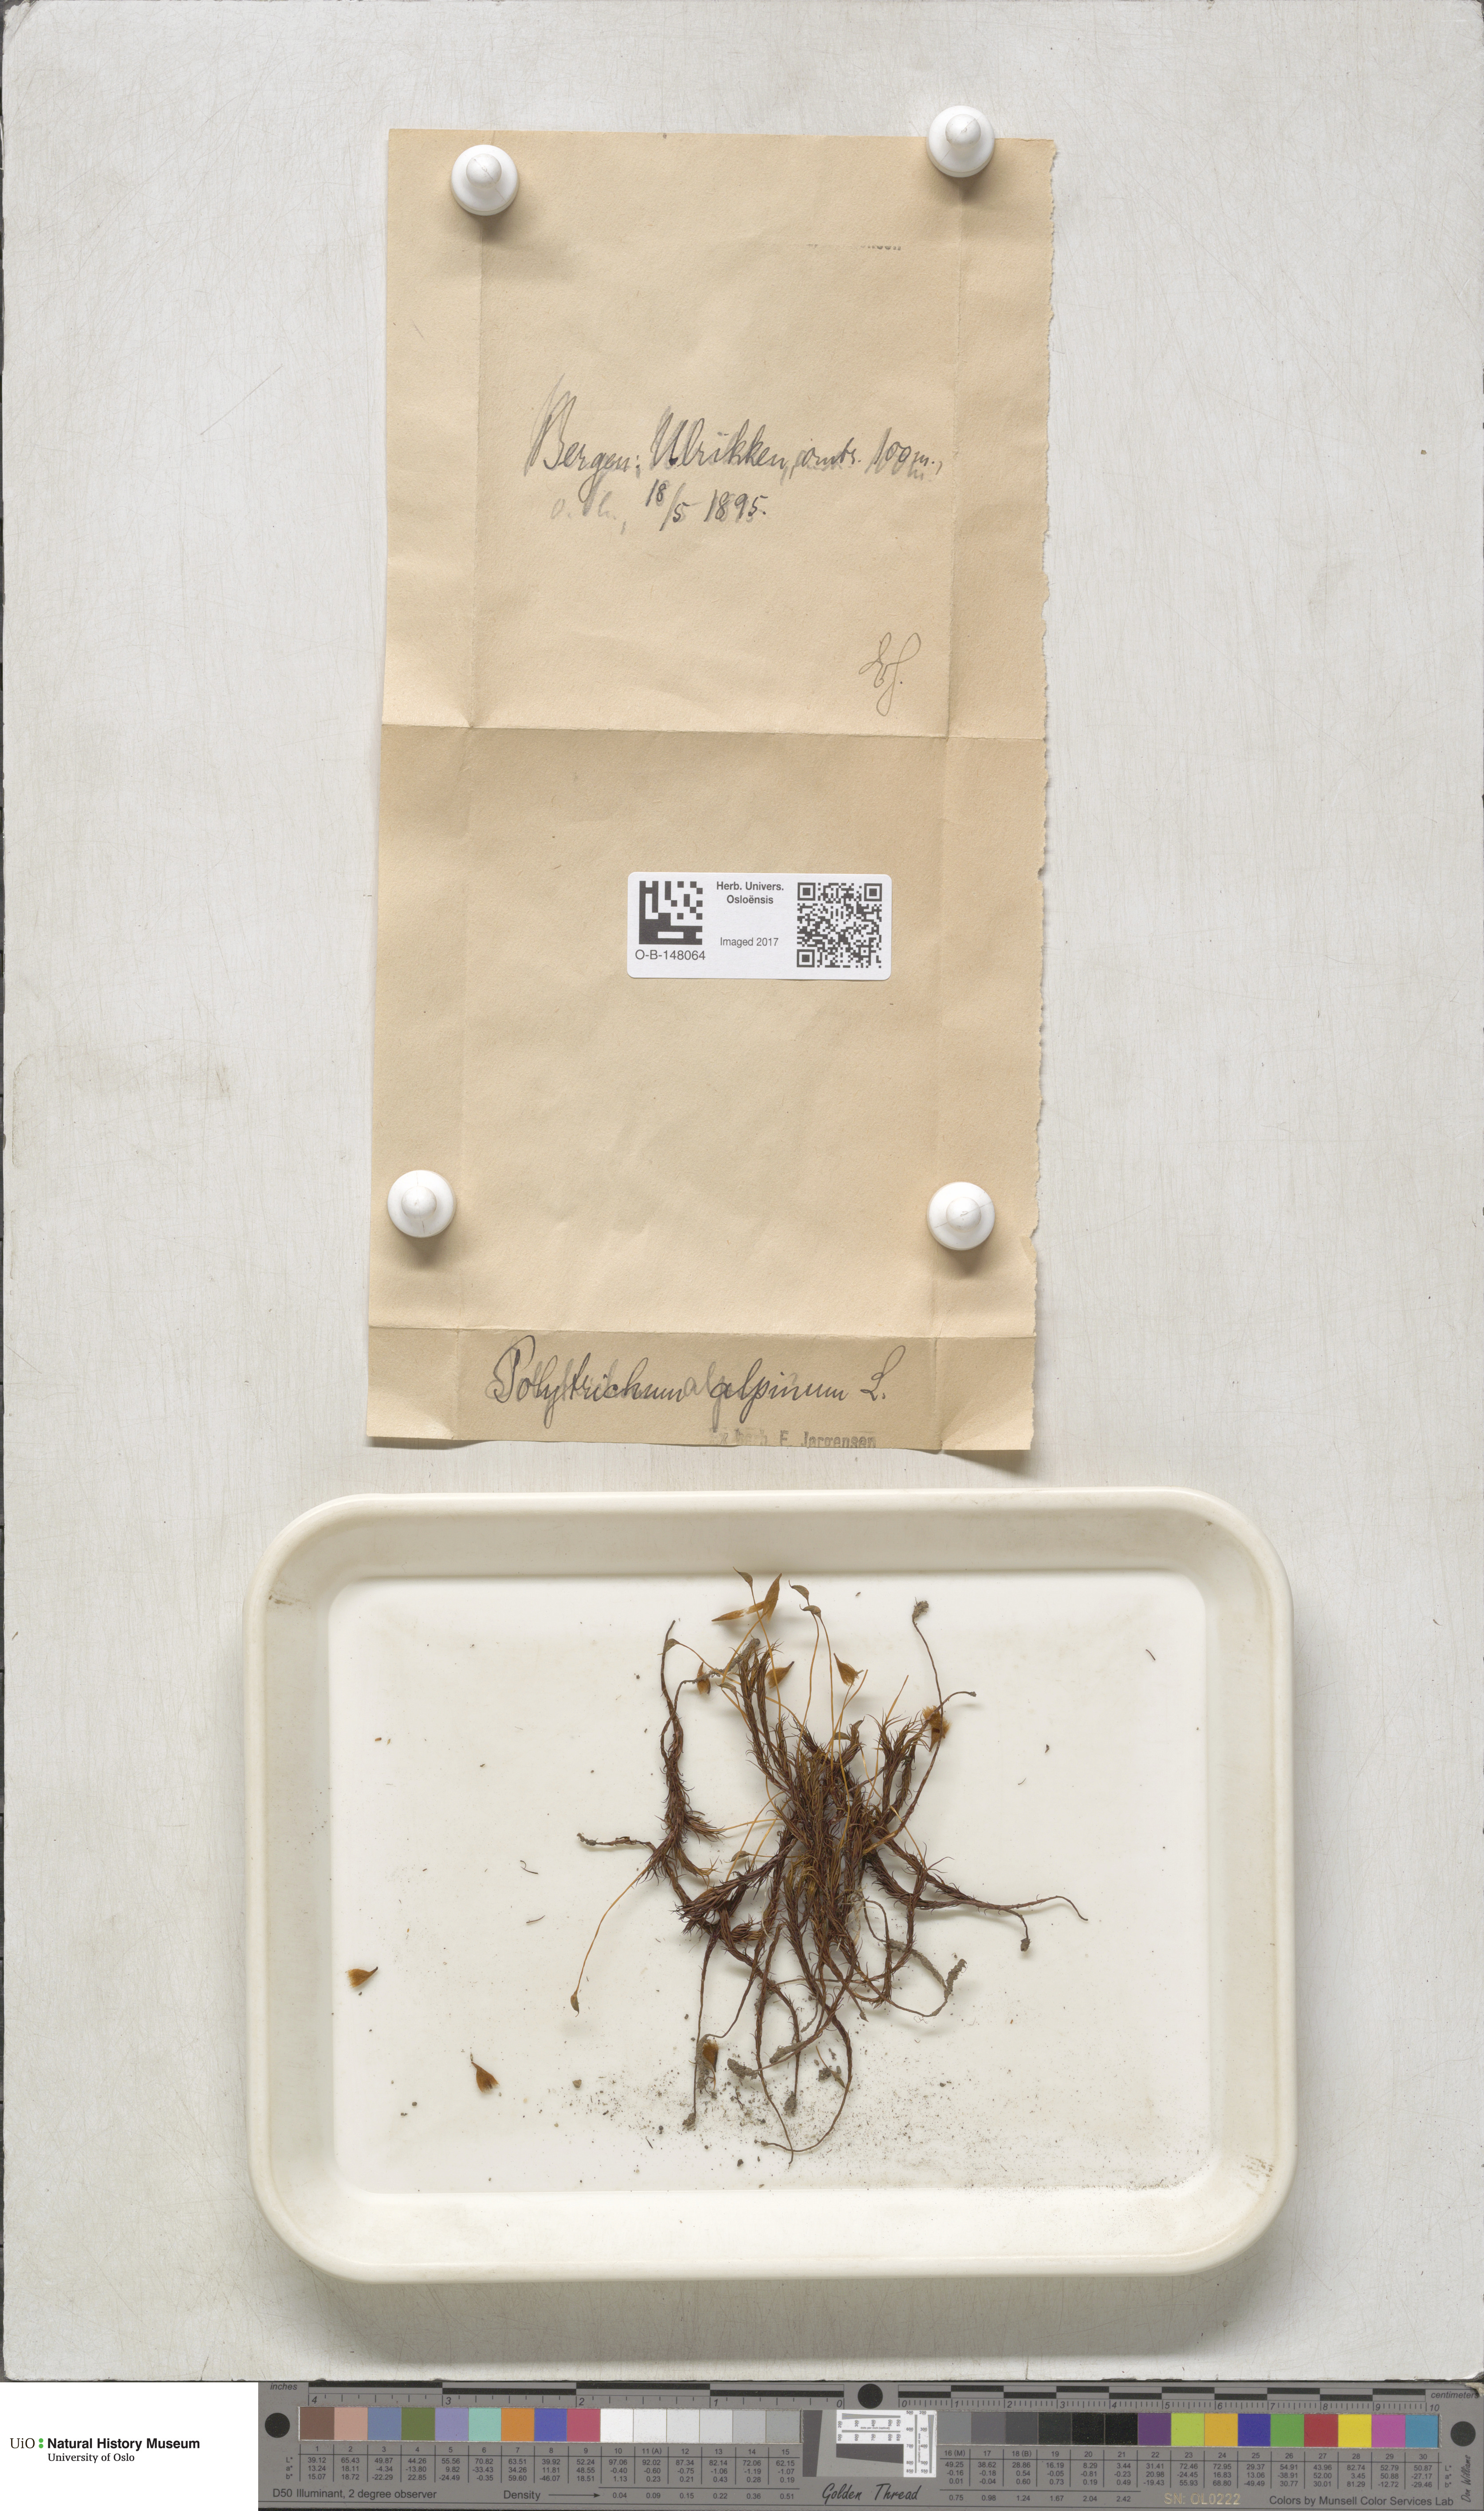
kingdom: Plantae
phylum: Bryophyta
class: Polytrichopsida
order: Polytrichales
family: Polytrichaceae
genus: Polytrichastrum
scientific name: Polytrichastrum alpinum
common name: Alpine haircap
